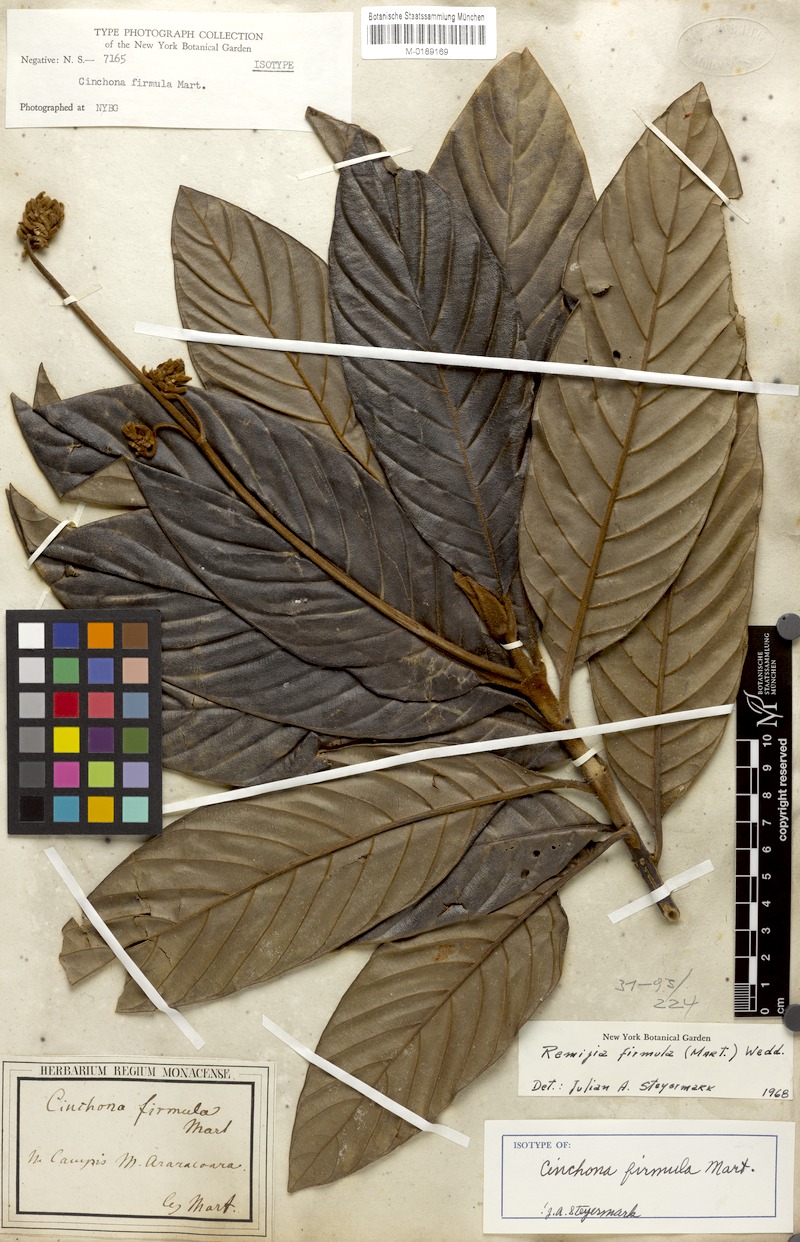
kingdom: Plantae
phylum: Tracheophyta
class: Magnoliopsida
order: Gentianales
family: Rubiaceae
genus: Remijia
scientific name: Remijia firmula
